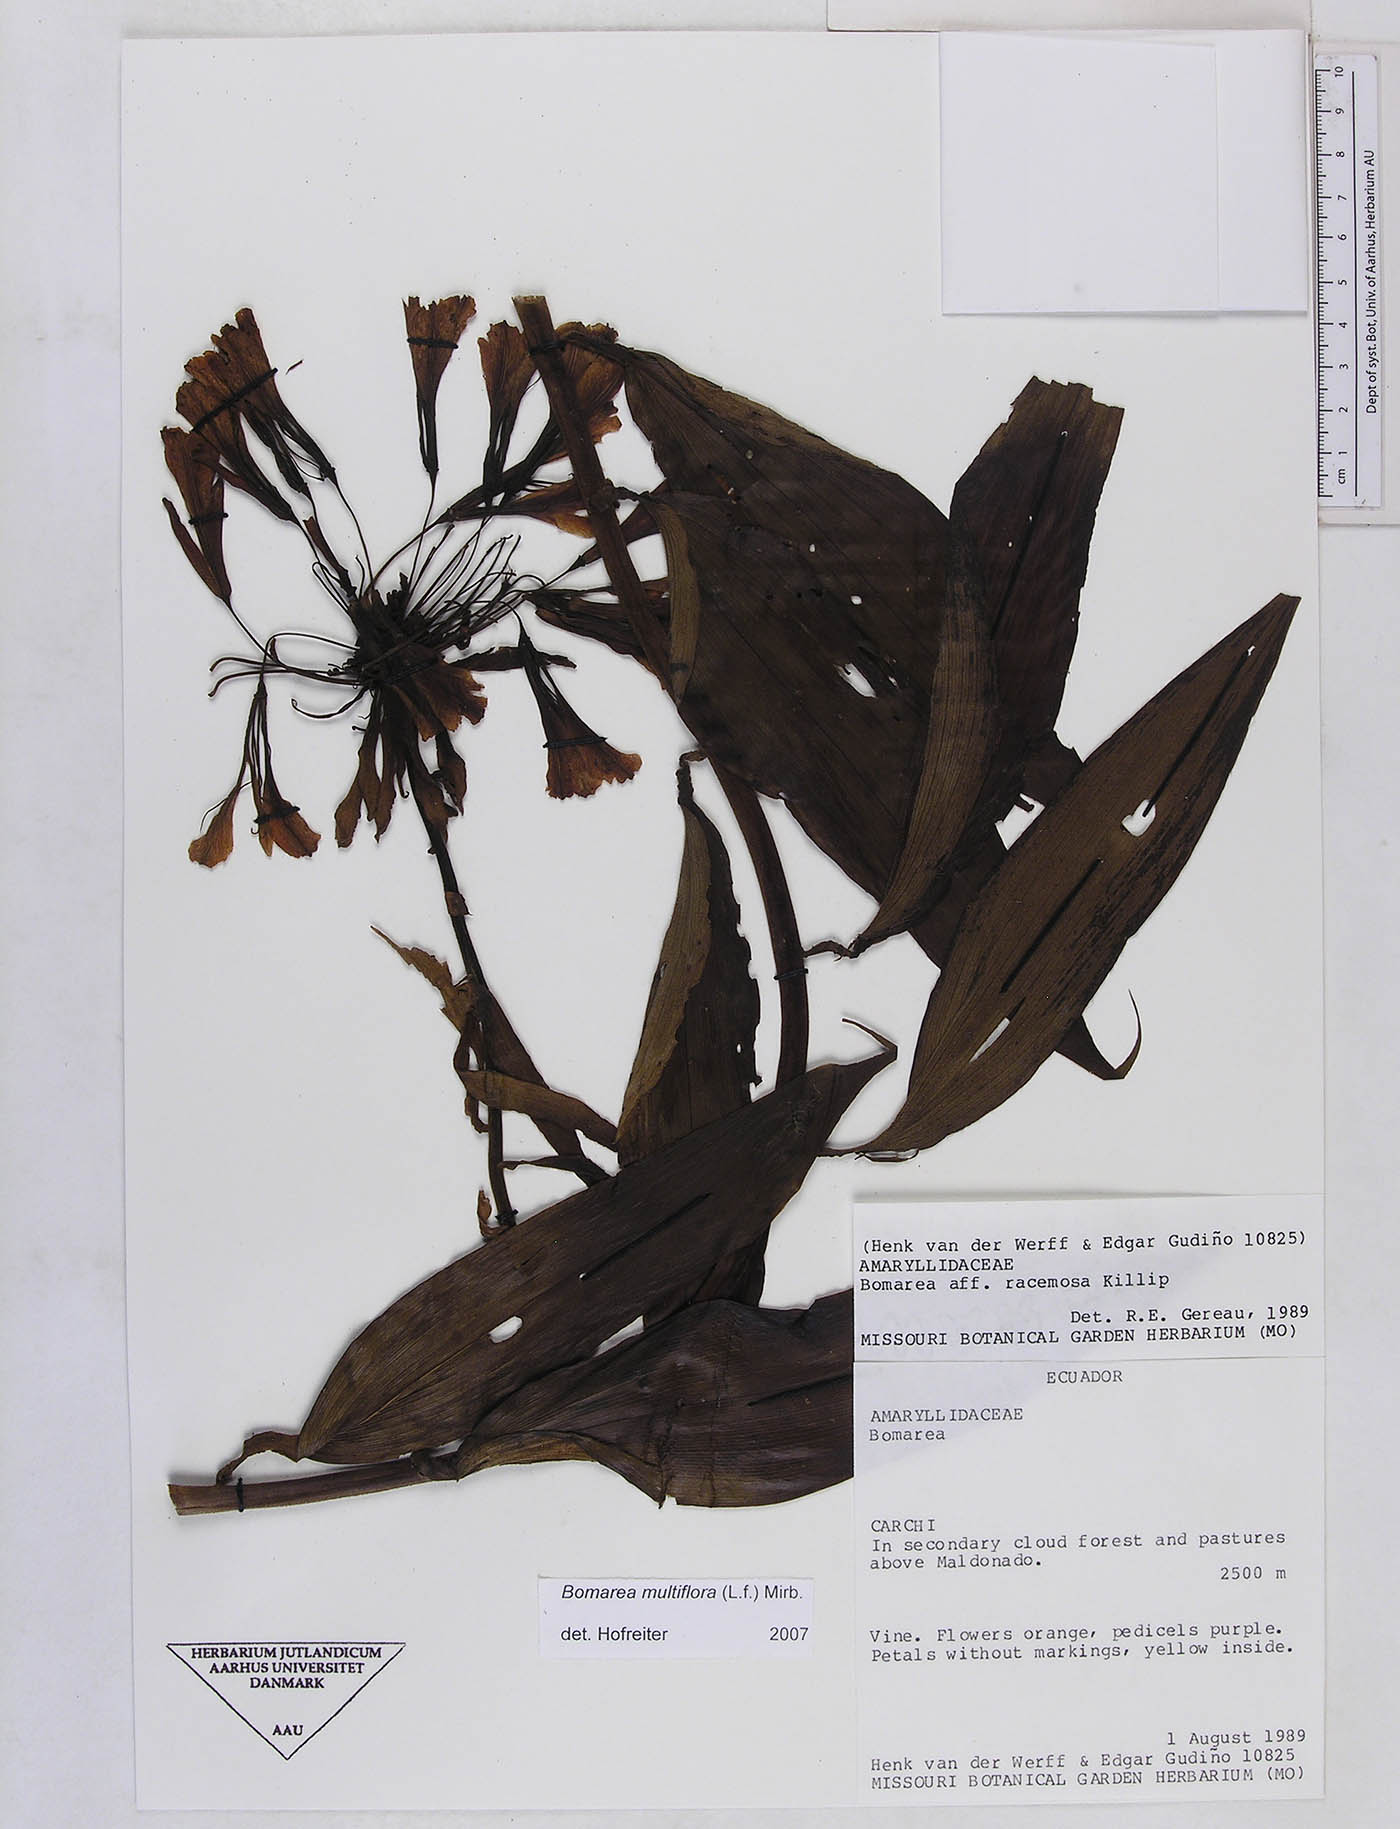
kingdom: Plantae
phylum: Tracheophyta
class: Liliopsida
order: Liliales
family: Alstroemeriaceae
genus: Bomarea
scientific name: Bomarea multiflora
